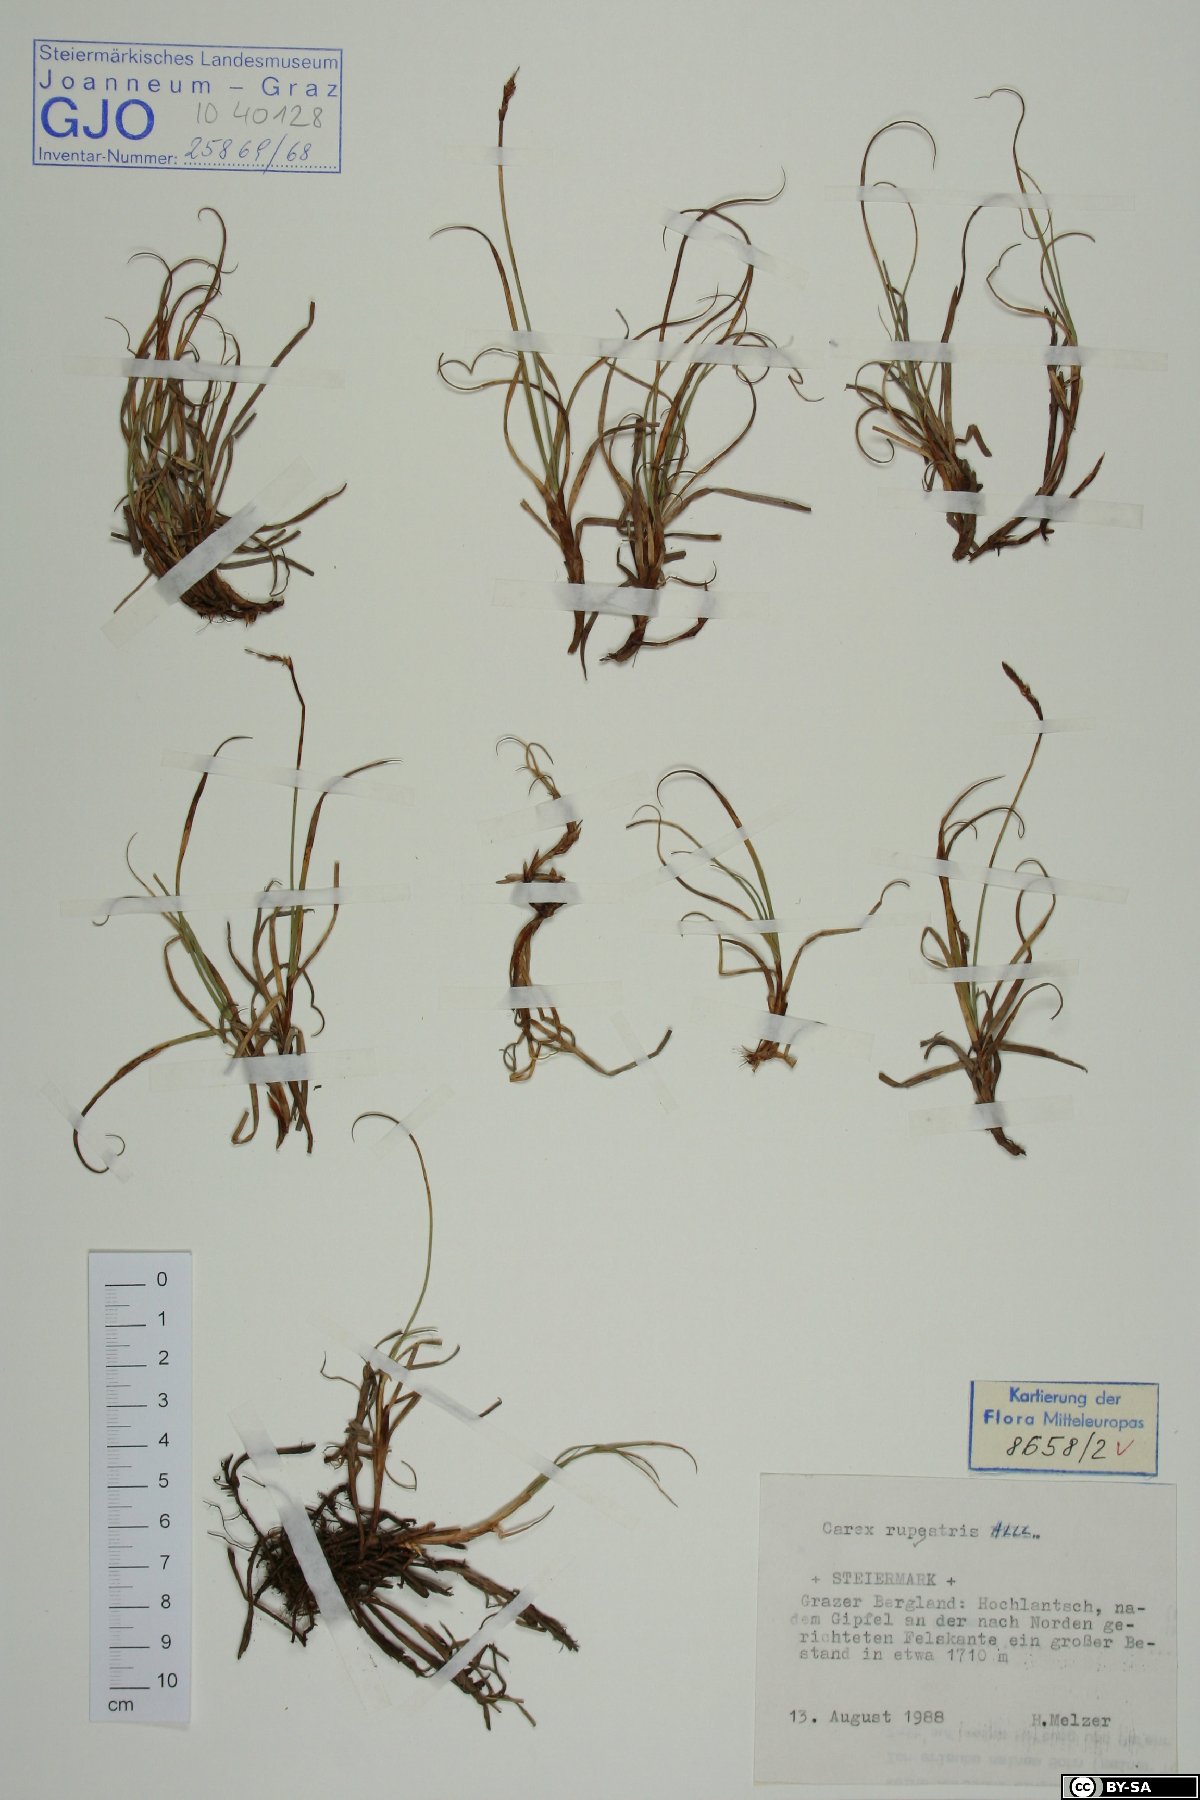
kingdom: Plantae
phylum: Tracheophyta
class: Liliopsida
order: Poales
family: Cyperaceae
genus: Carex
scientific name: Carex rupestris
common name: Rock sedge
